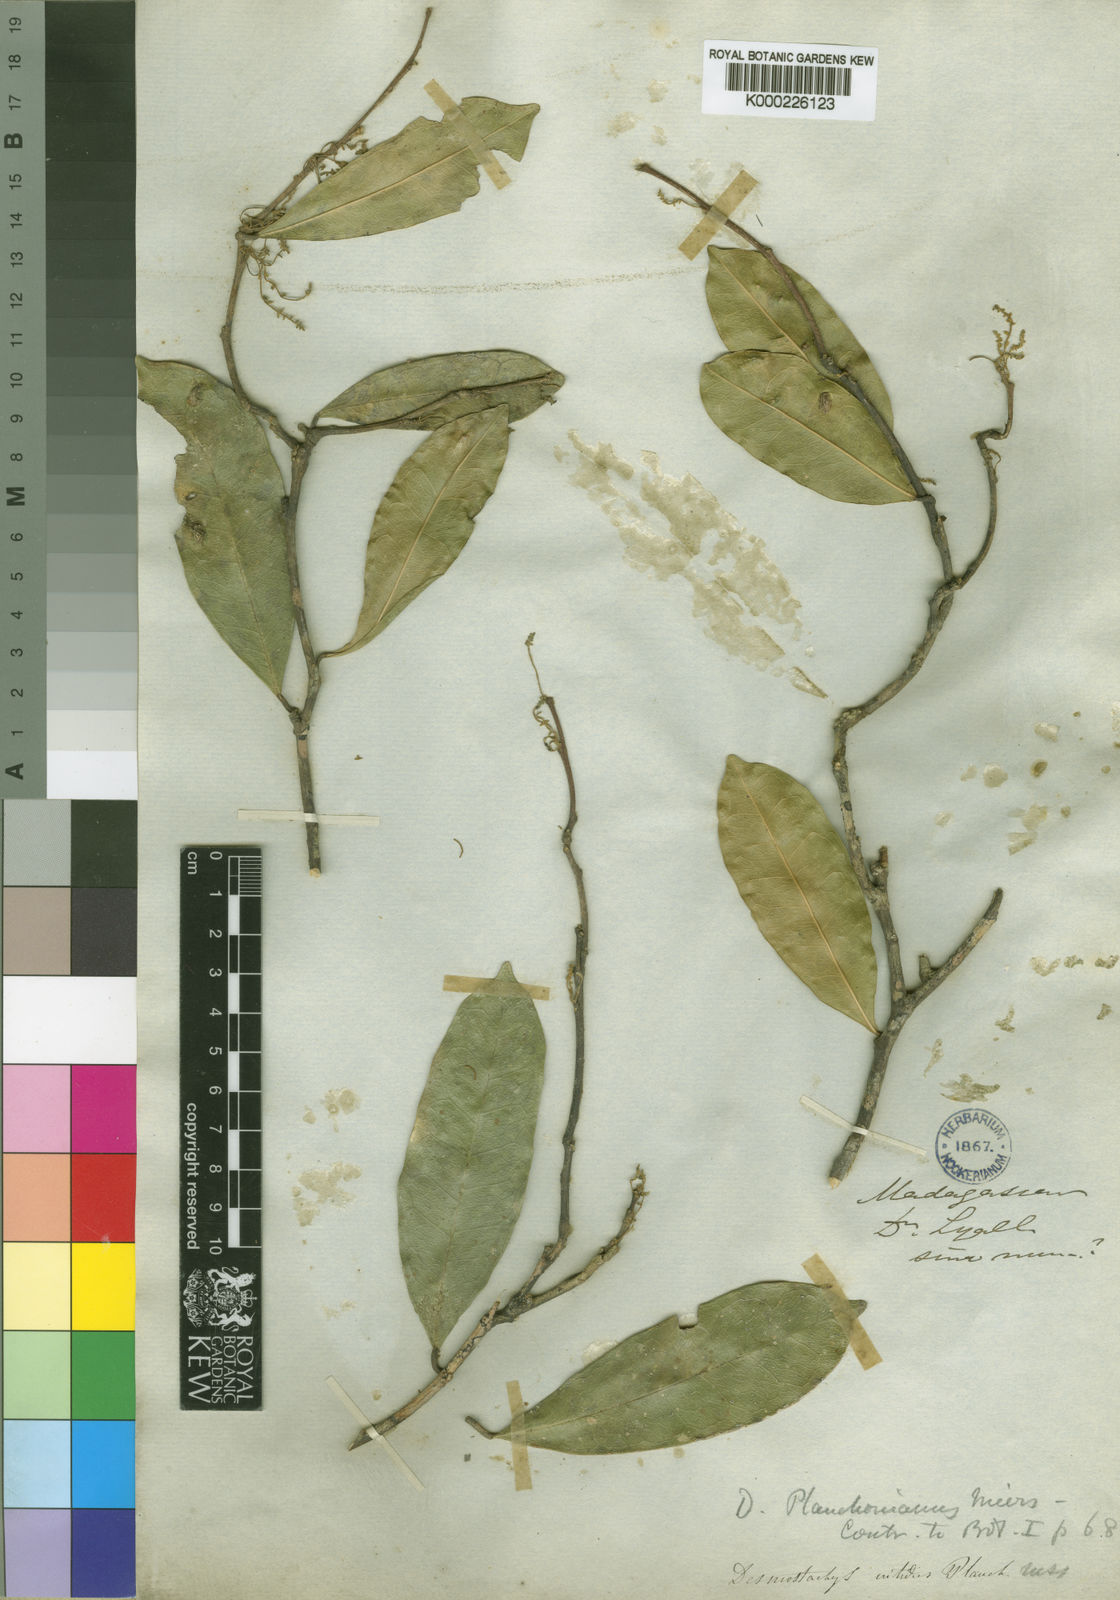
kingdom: Plantae
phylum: Tracheophyta
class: Magnoliopsida
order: Icacinales
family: Icacinaceae
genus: Desmostachys
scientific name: Desmostachys planchonianus
